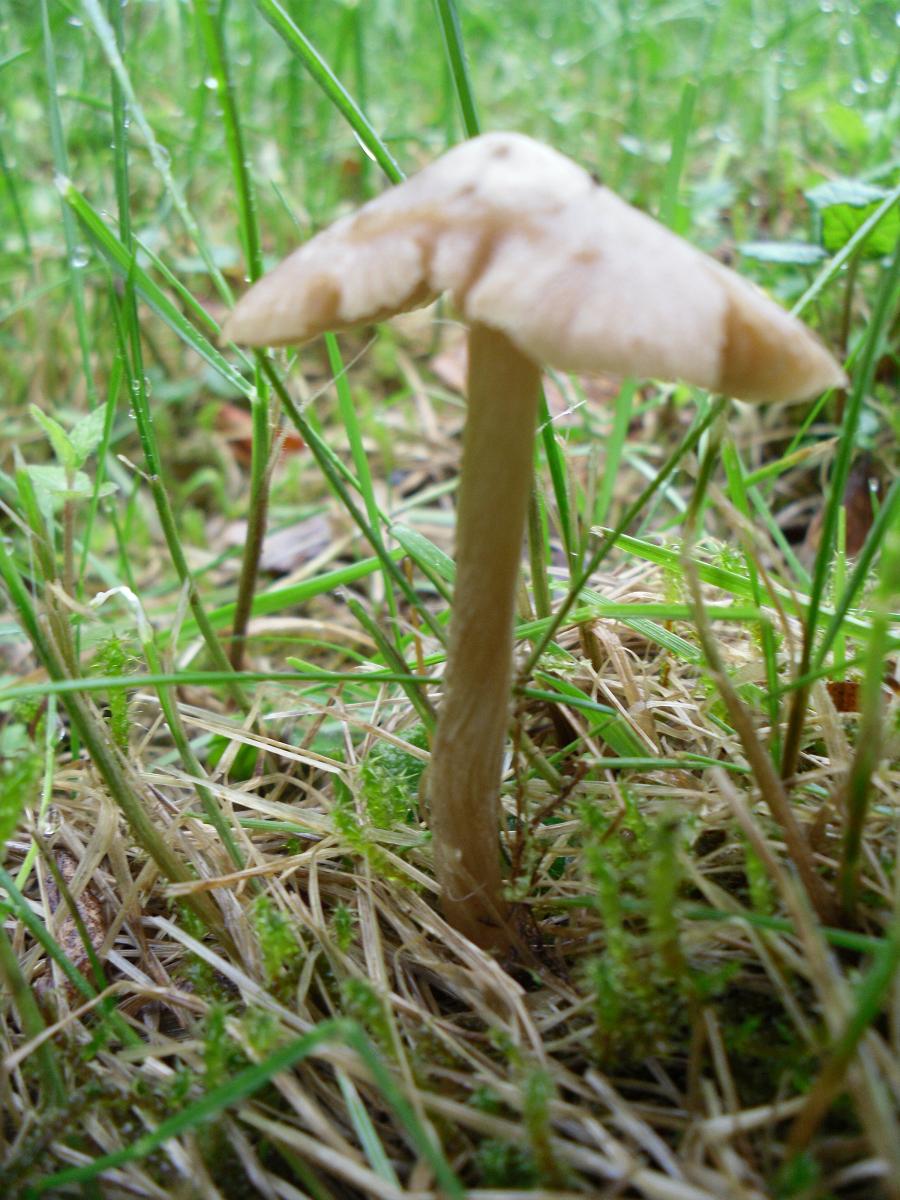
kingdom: Fungi
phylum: Basidiomycota
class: Agaricomycetes
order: Agaricales
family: Entolomataceae
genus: Entoloma
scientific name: Entoloma pallescens
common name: tidlig rødblad
